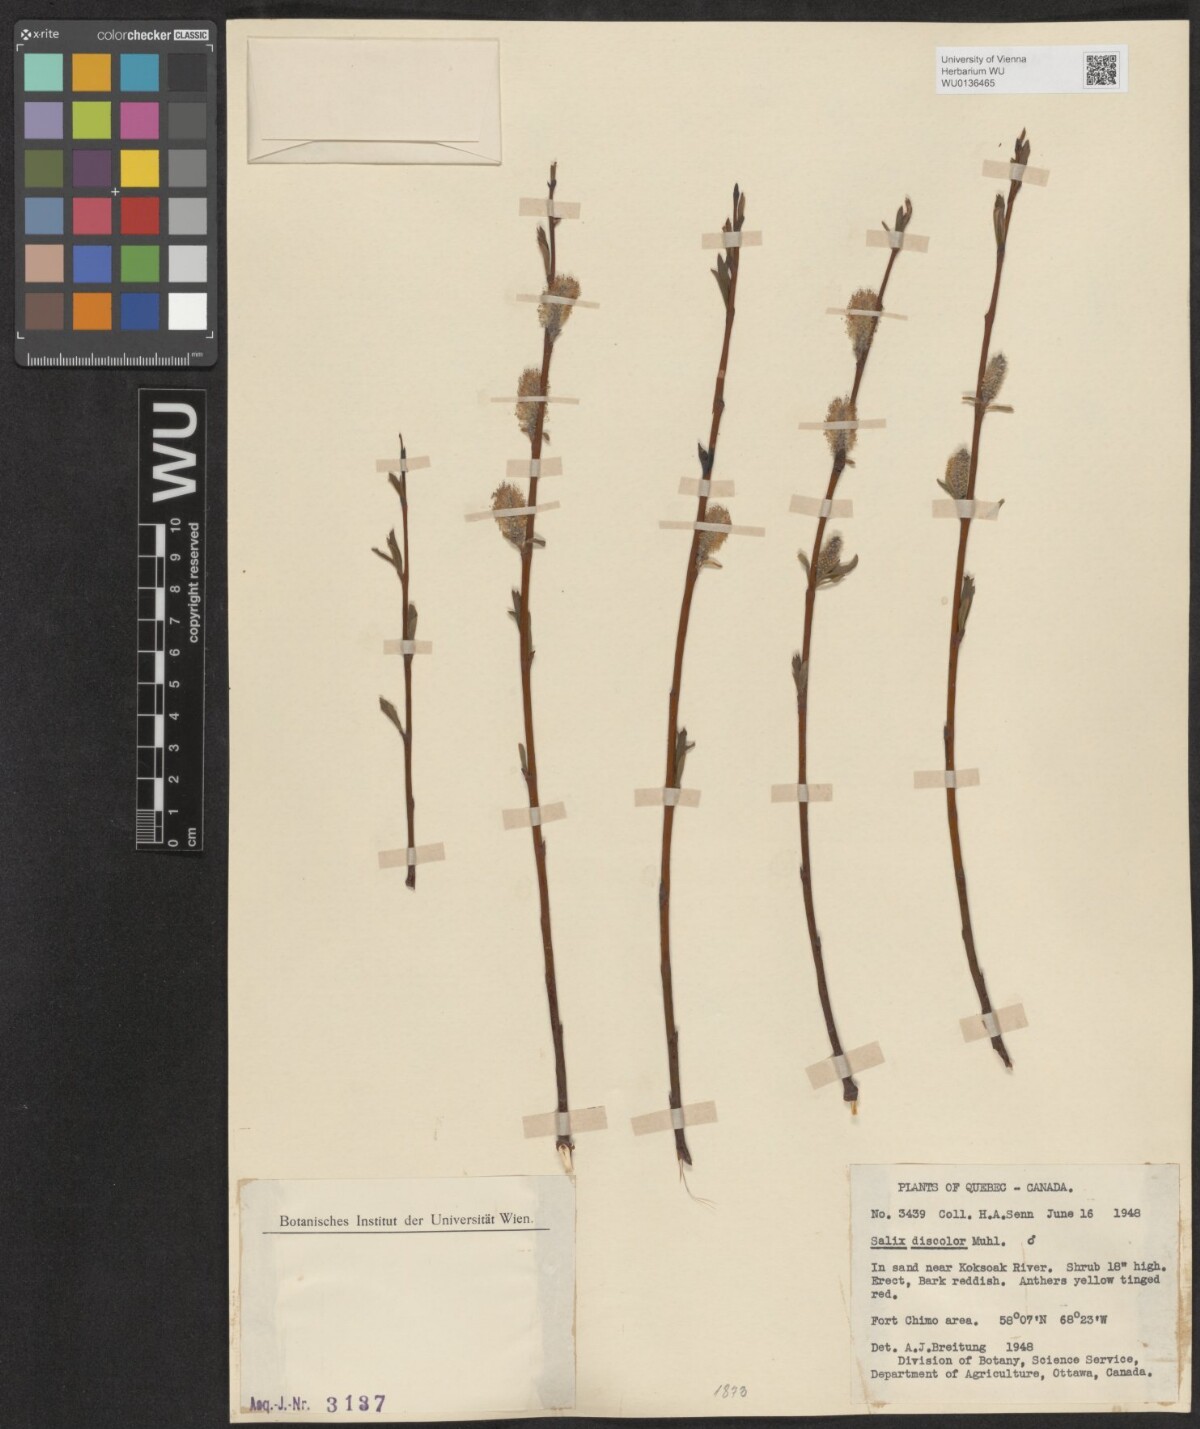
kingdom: Plantae
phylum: Tracheophyta
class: Magnoliopsida
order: Malpighiales
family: Salicaceae
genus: Salix
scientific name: Salix discolor
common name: Glaucous willow
